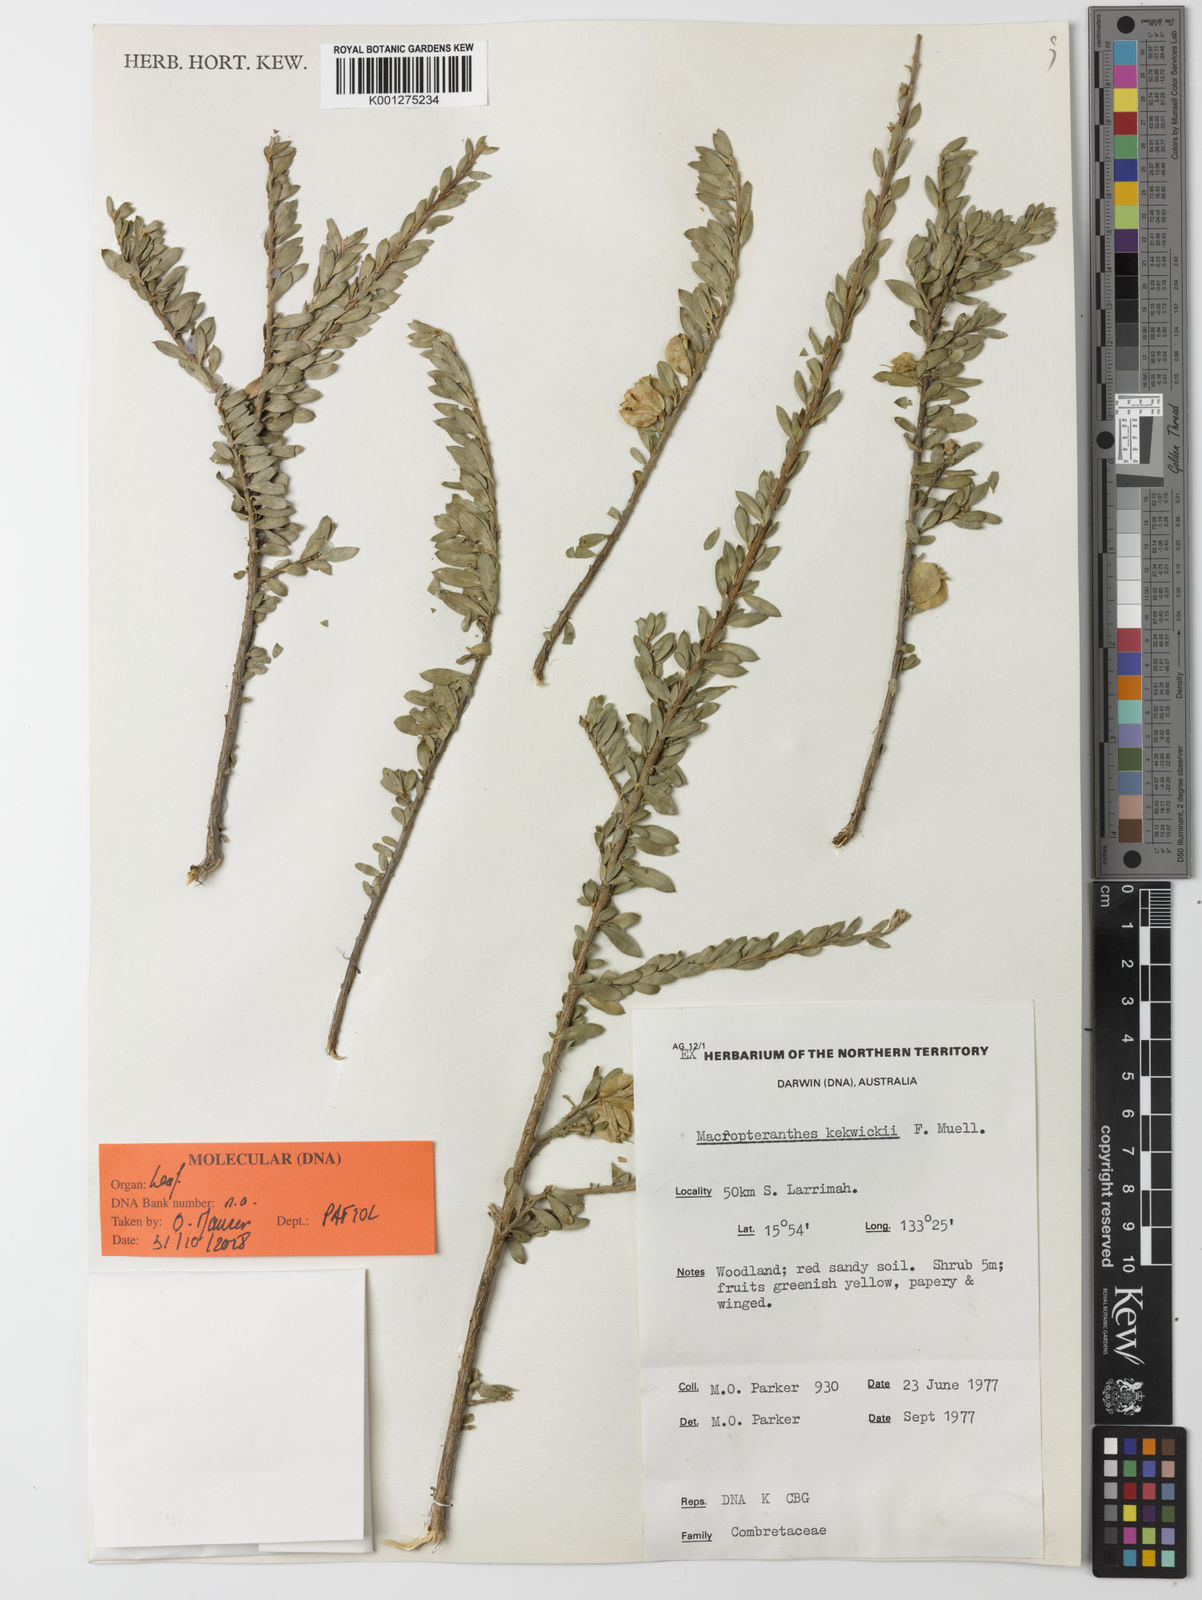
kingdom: Plantae
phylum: Tracheophyta
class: Magnoliopsida
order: Myrtales
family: Combretaceae
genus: Macropteranthes
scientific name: Macropteranthes kekwickii
